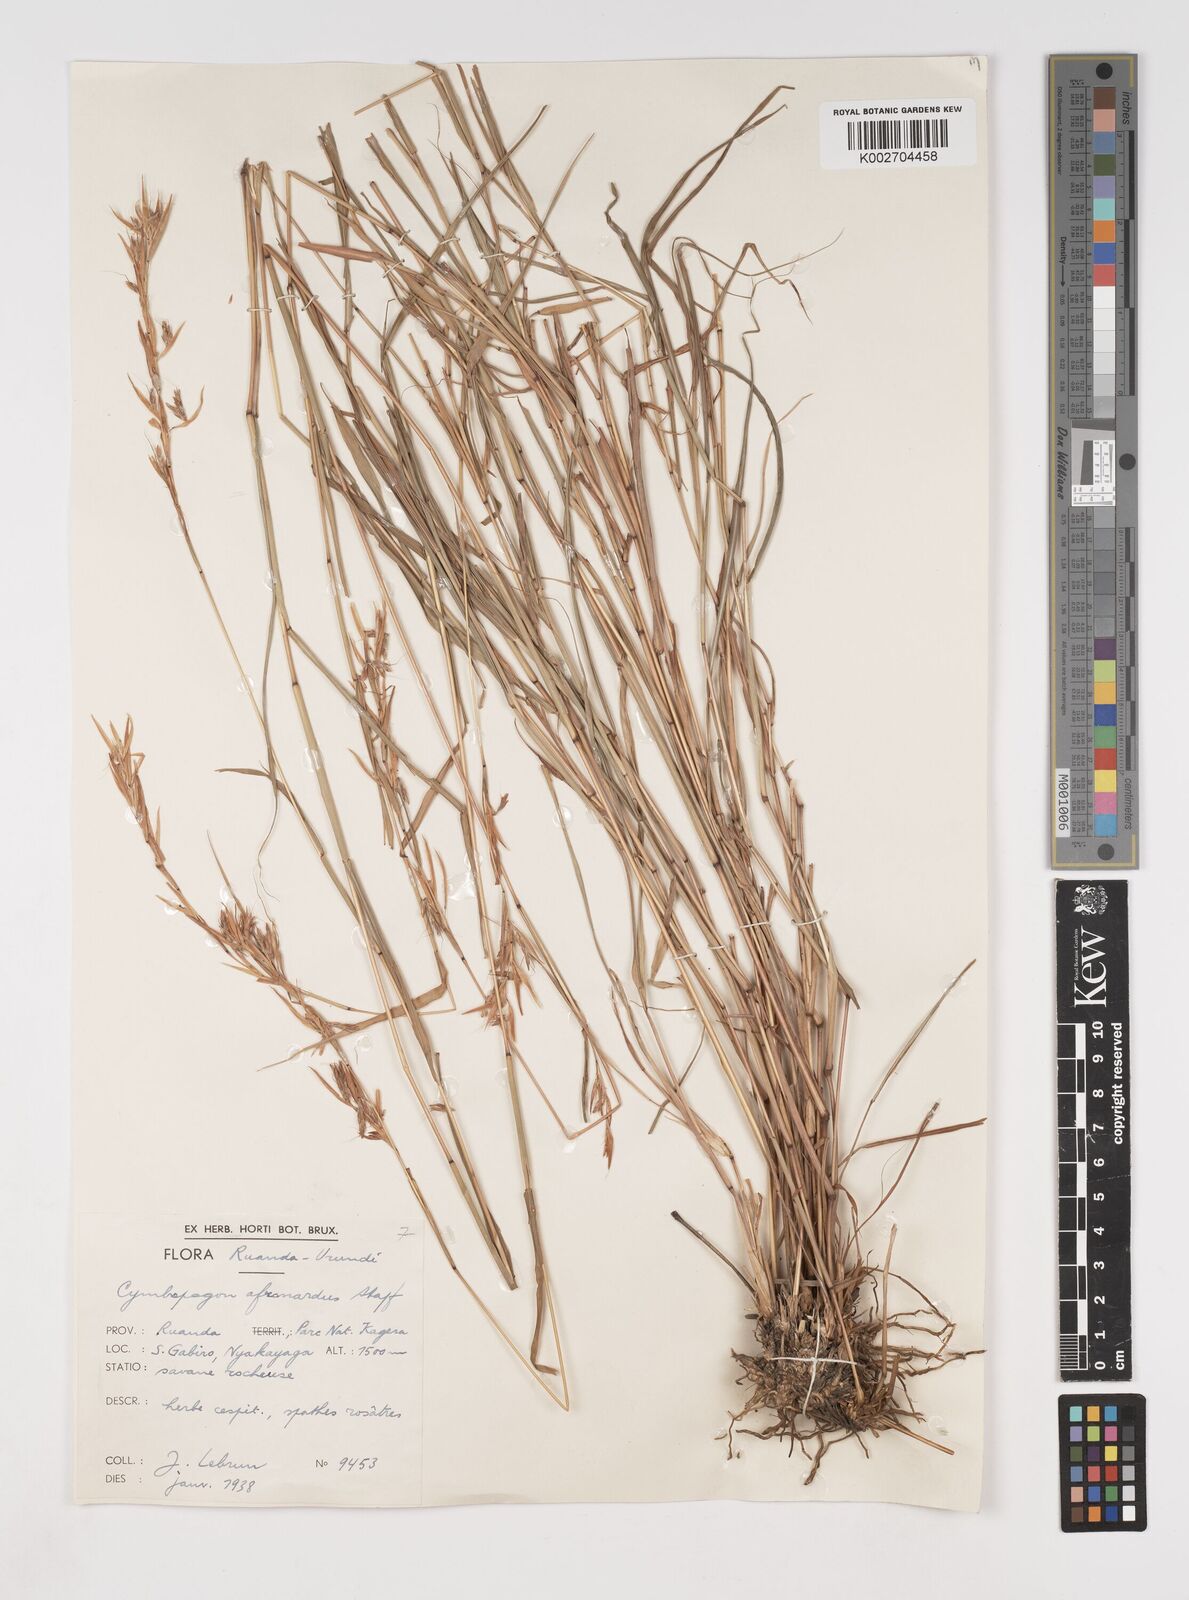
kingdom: Plantae
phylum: Tracheophyta
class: Liliopsida
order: Poales
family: Poaceae
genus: Cymbopogon
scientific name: Cymbopogon caesius
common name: Kachi grass
